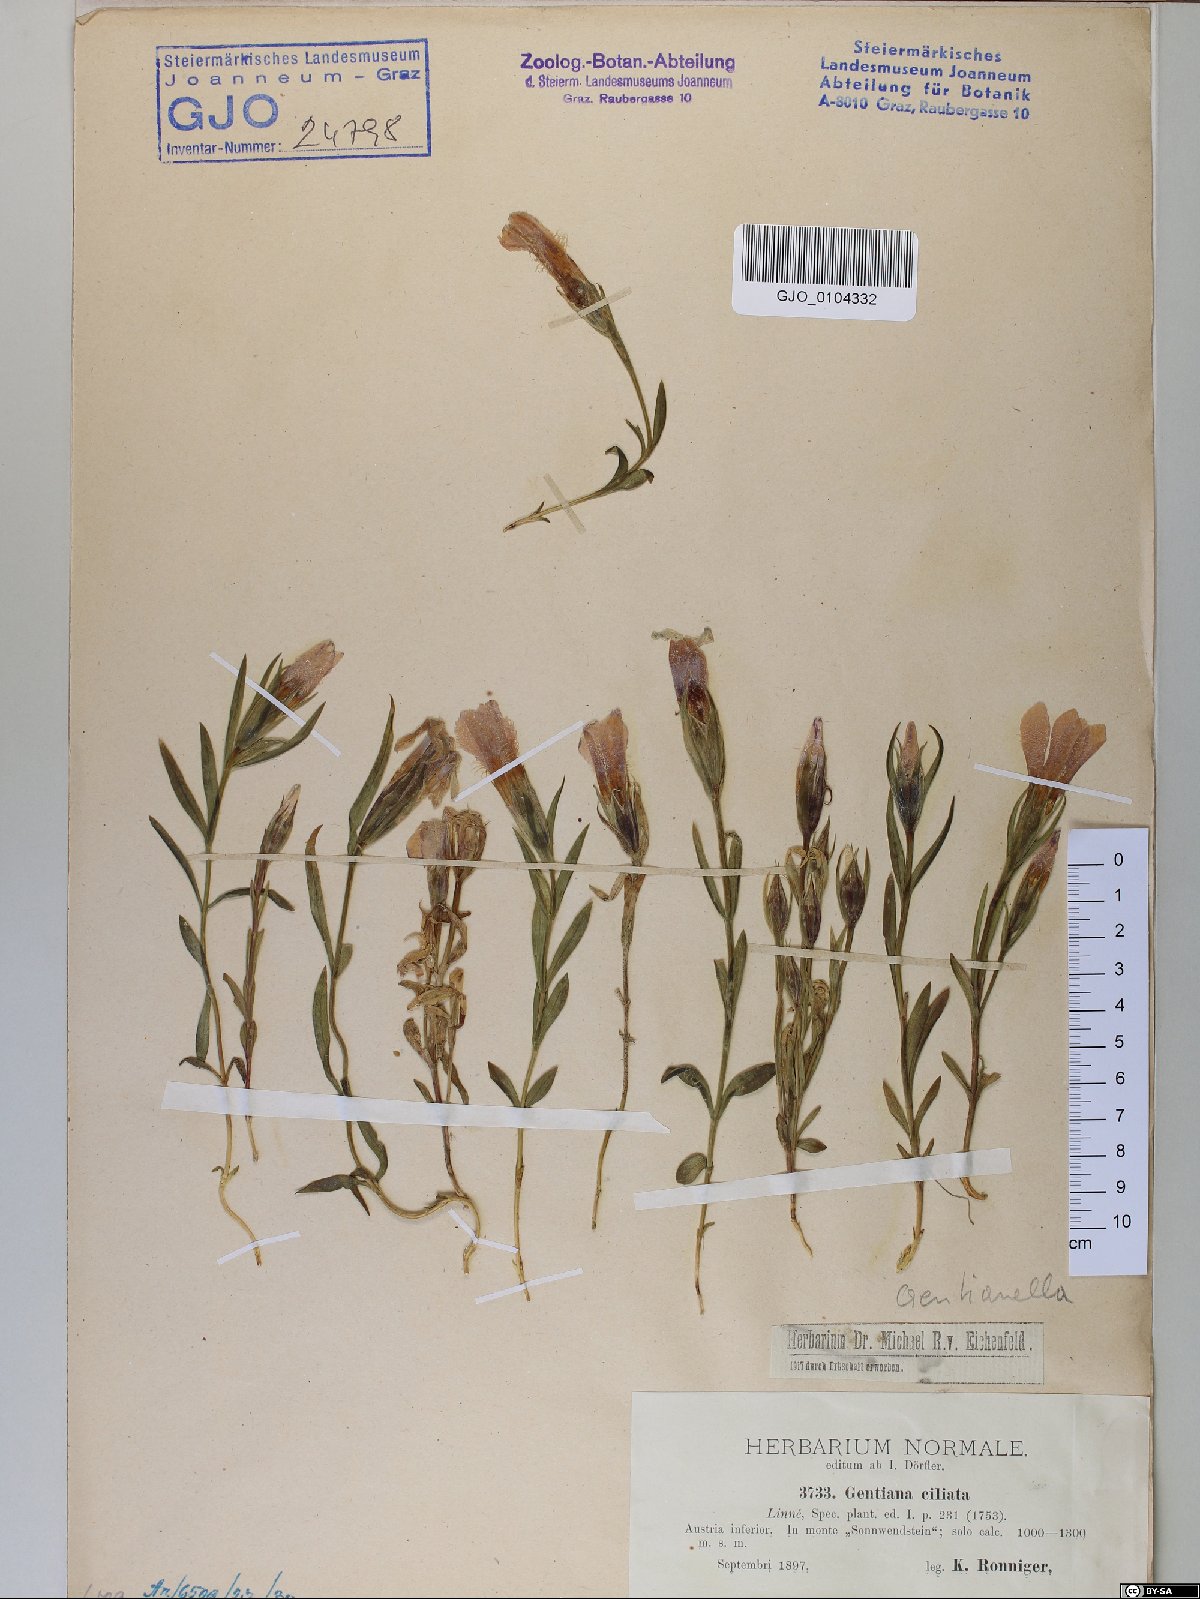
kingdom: Plantae
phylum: Tracheophyta
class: Magnoliopsida
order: Gentianales
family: Gentianaceae
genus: Gentianopsis
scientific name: Gentianopsis ciliata
